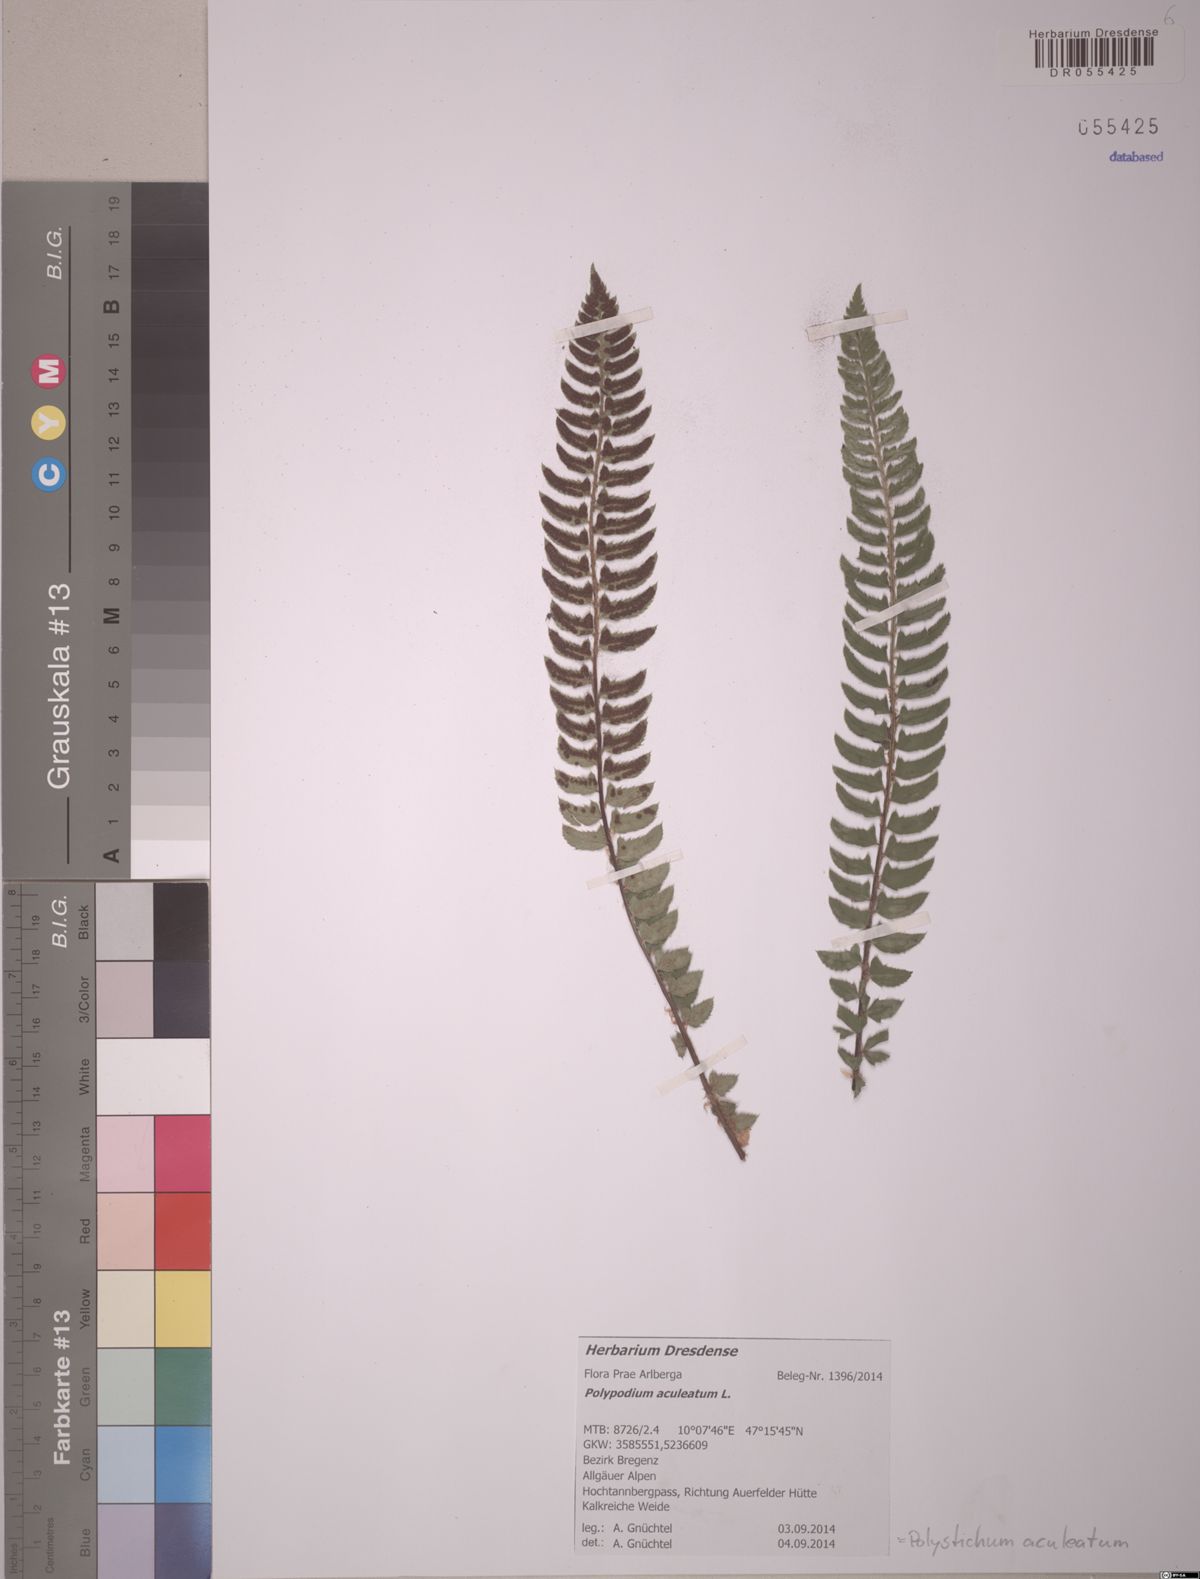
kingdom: Plantae
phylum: Tracheophyta
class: Polypodiopsida
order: Polypodiales
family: Dryopteridaceae
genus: Polystichum
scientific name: Polystichum aculeatum
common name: Hard shield-fern
